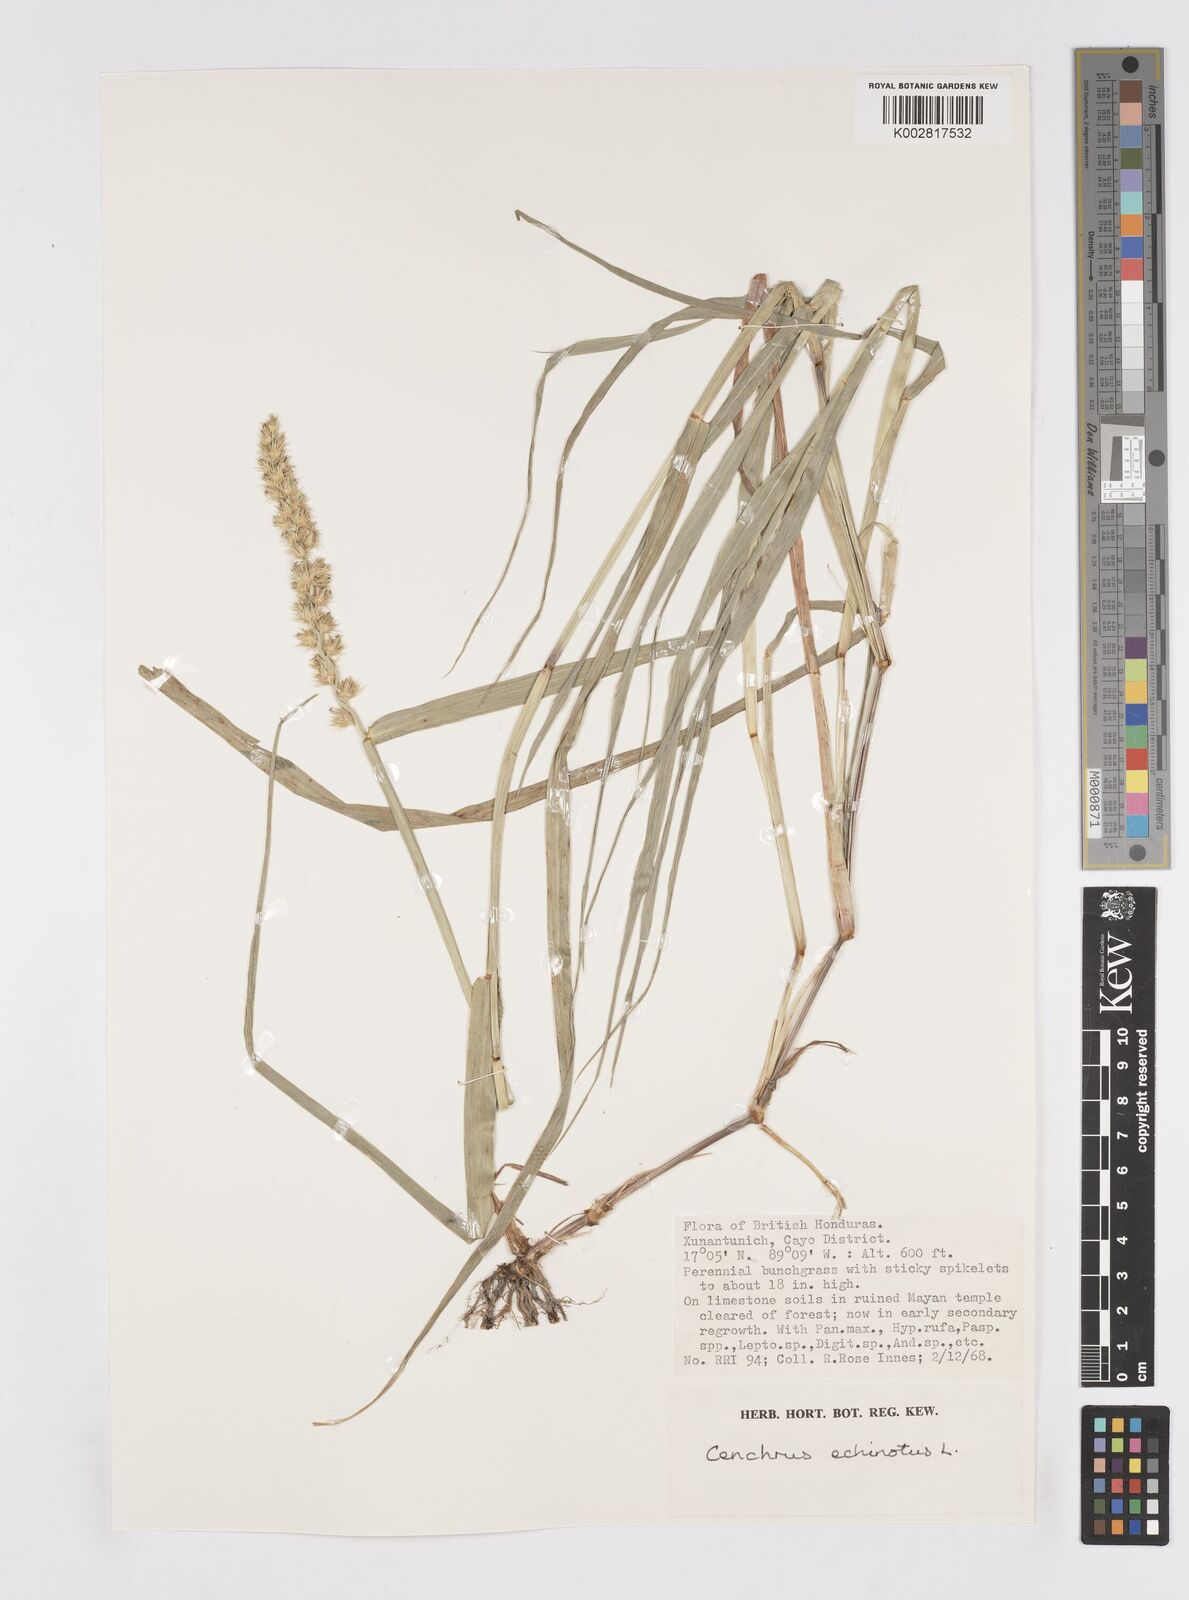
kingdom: Plantae
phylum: Tracheophyta
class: Liliopsida
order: Poales
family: Poaceae
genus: Cenchrus
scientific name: Cenchrus
